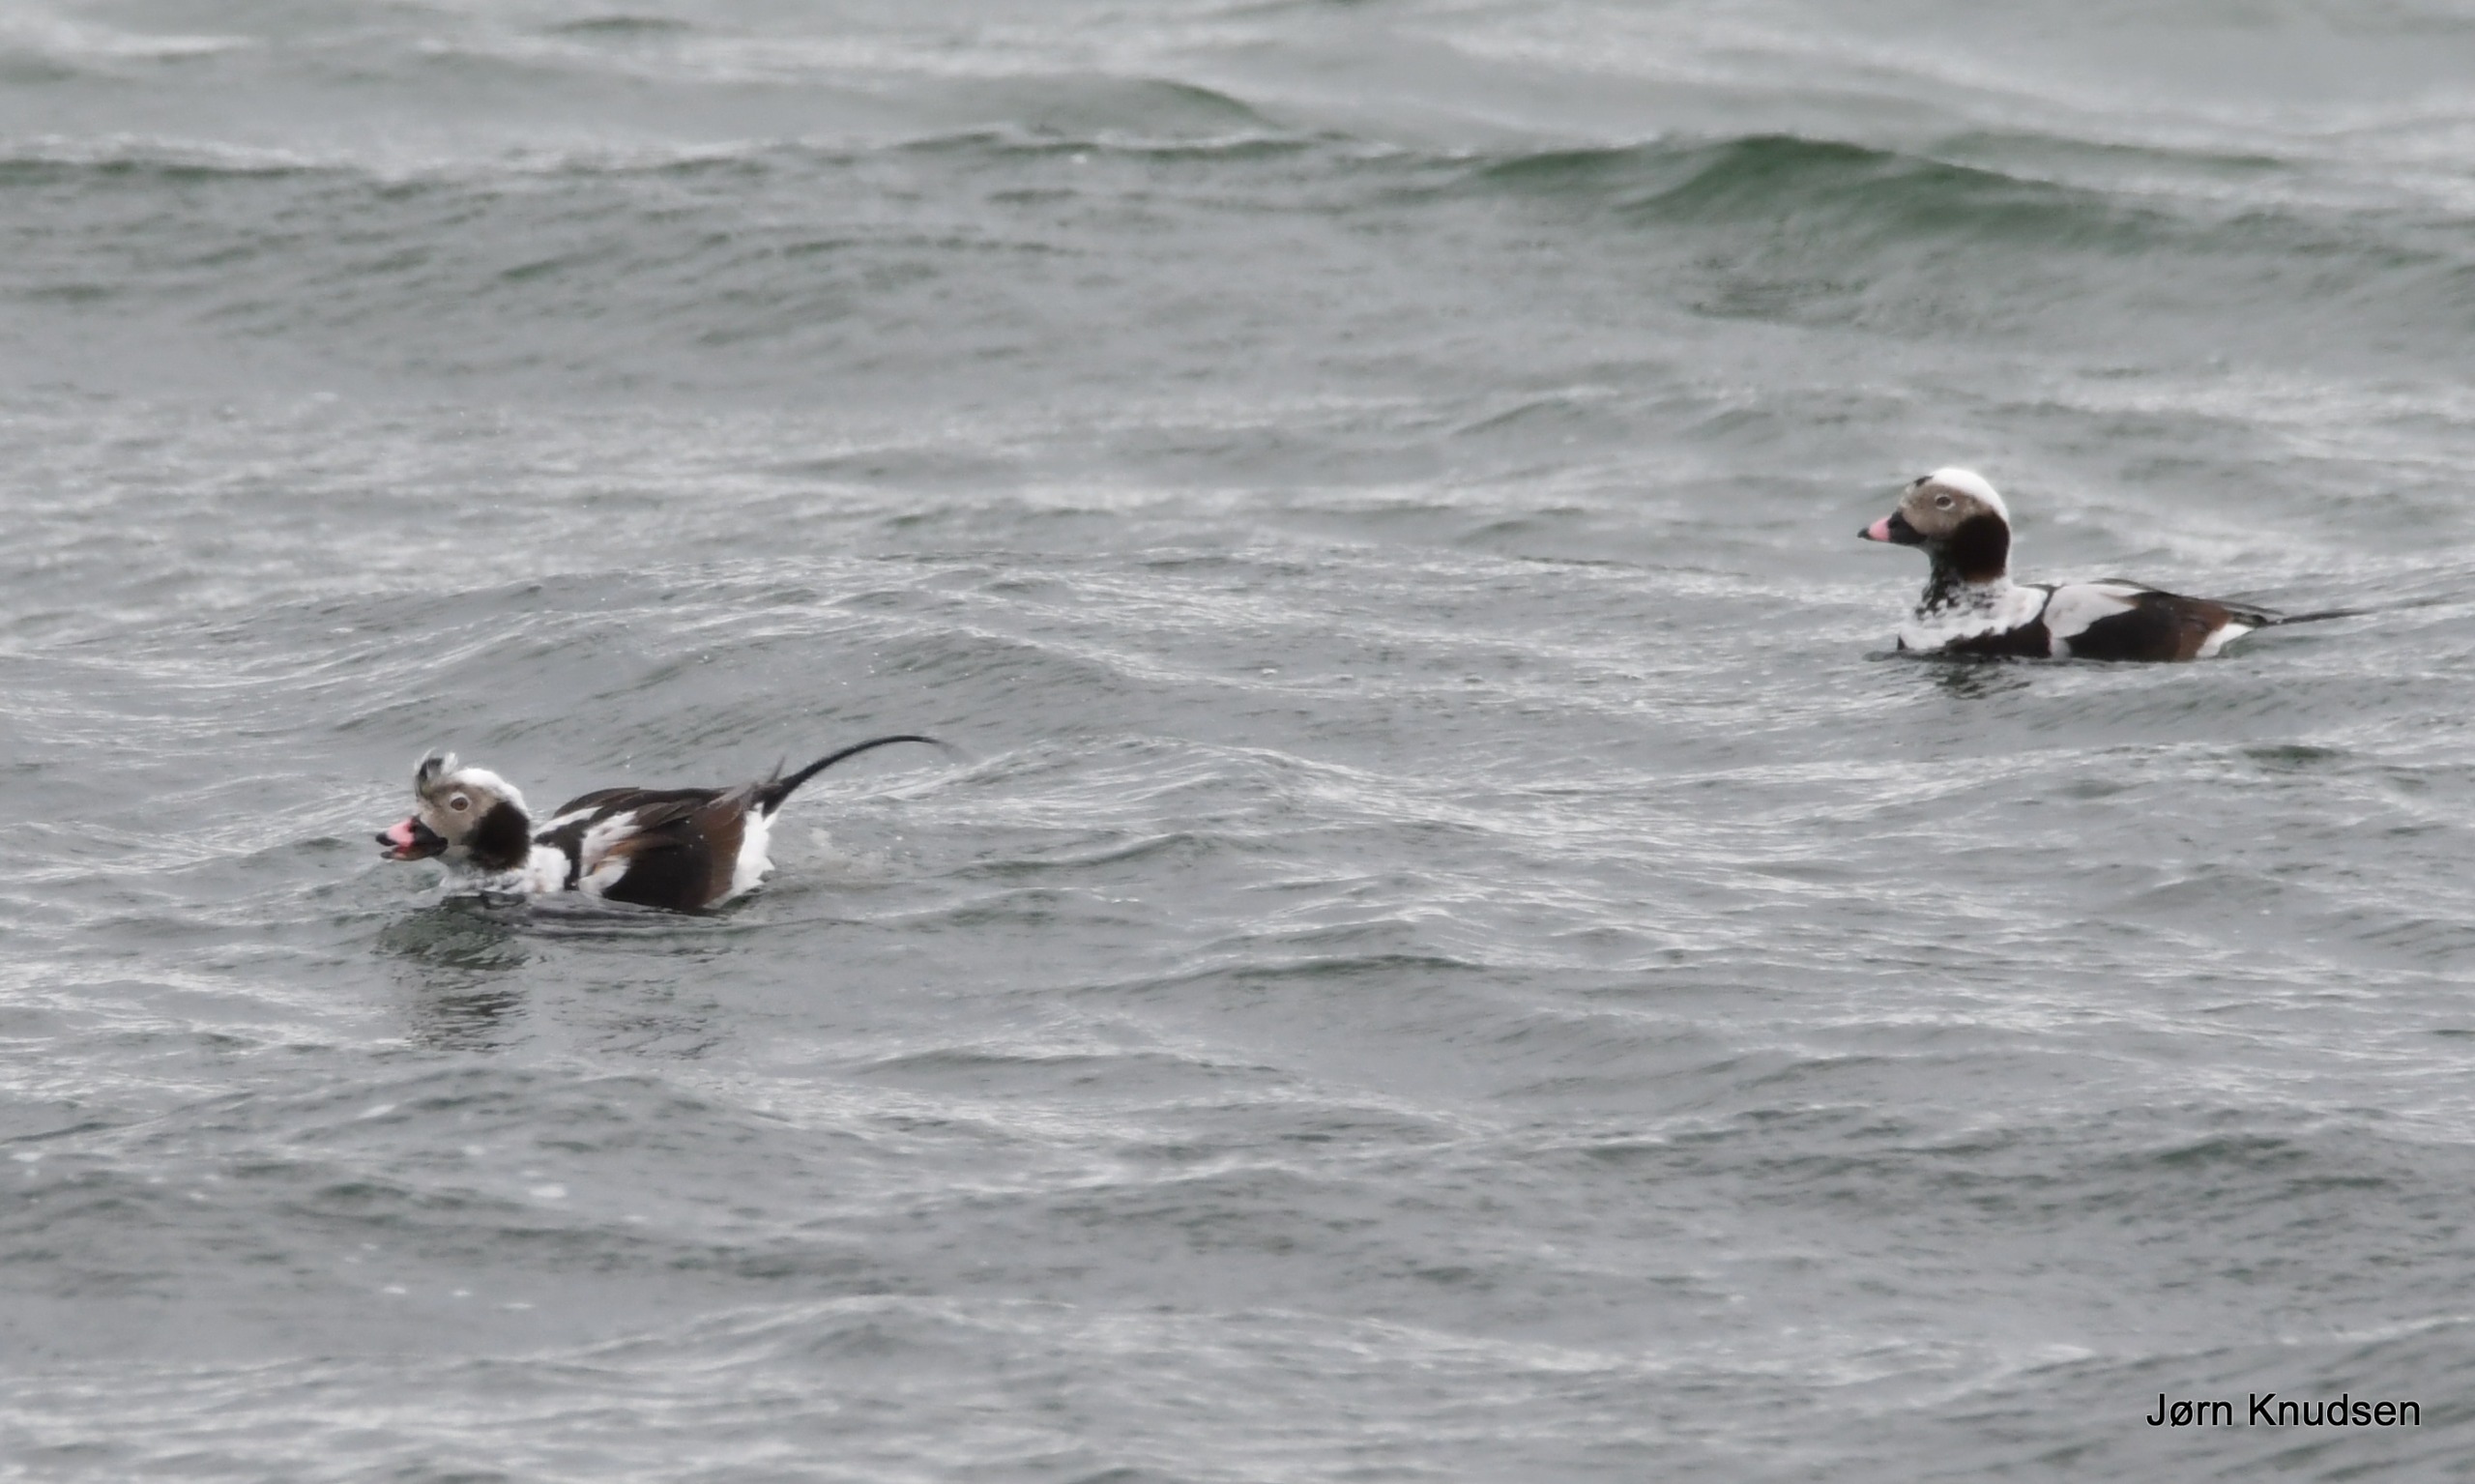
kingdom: Animalia
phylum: Chordata
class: Aves
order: Anseriformes
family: Anatidae
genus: Clangula
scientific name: Clangula hyemalis
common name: Havlit
